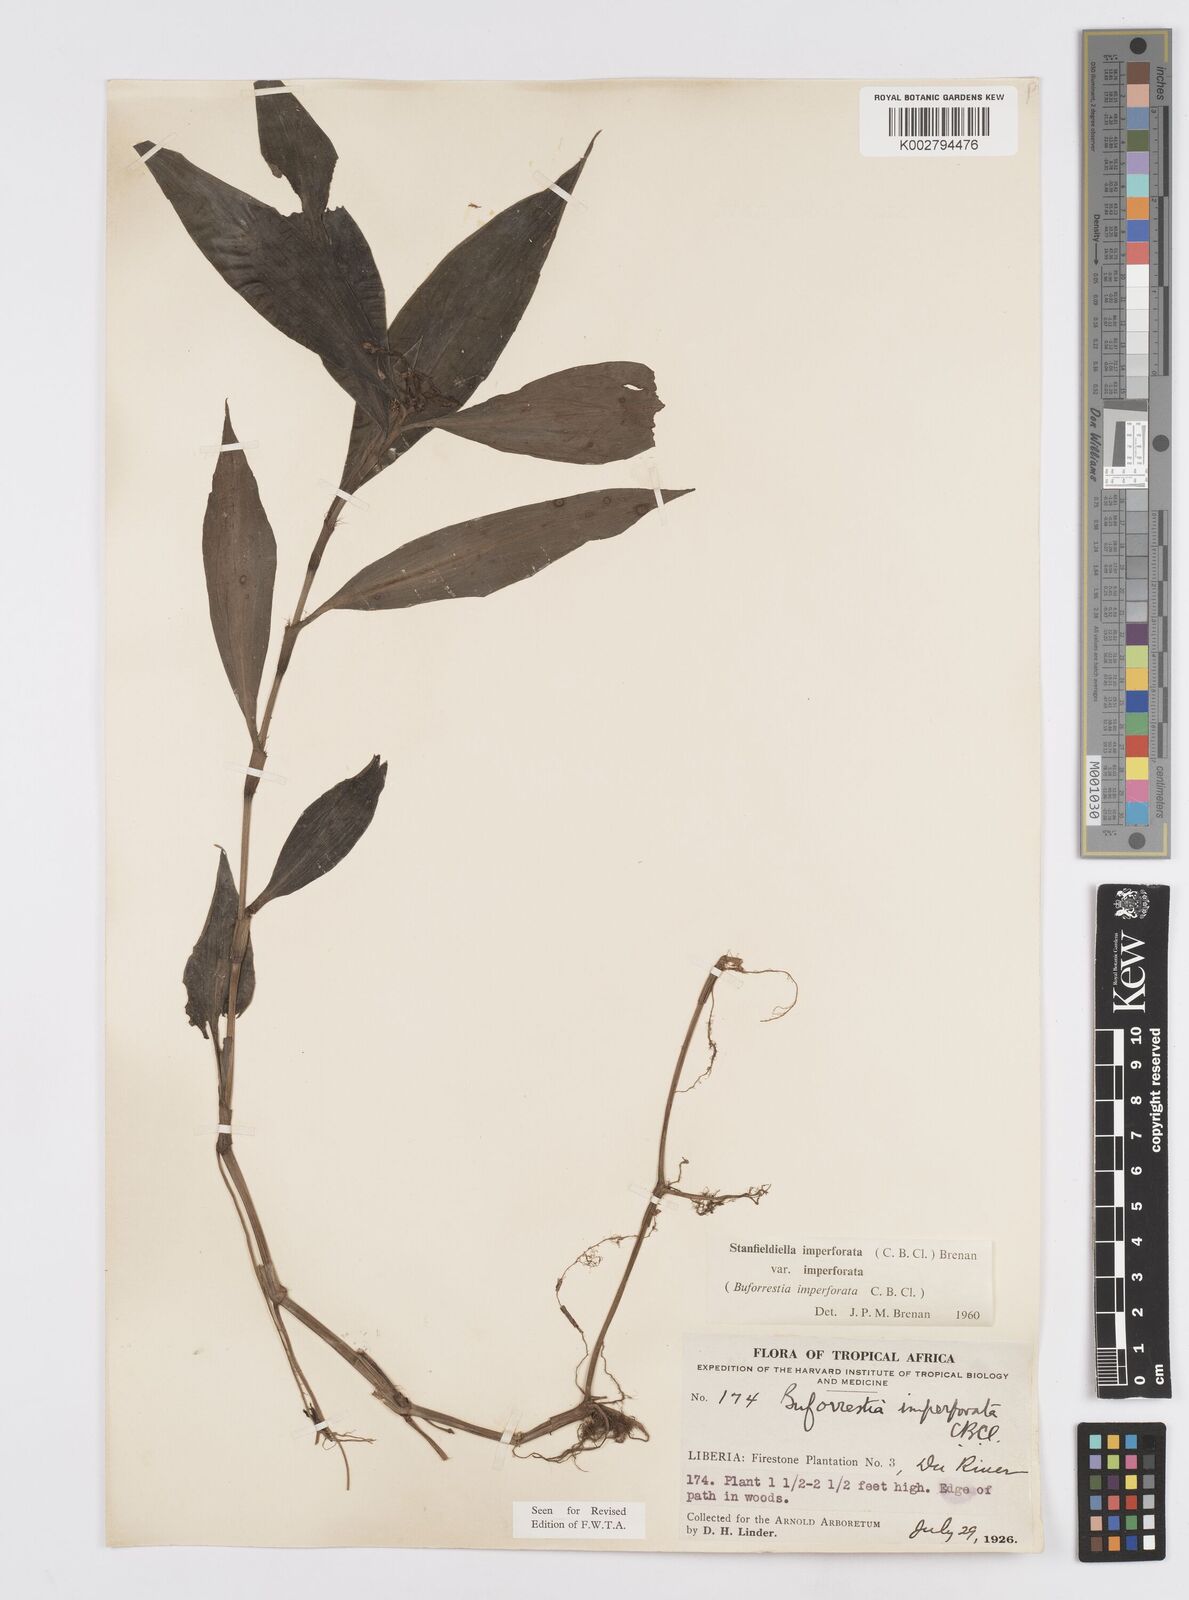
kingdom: Plantae
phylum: Tracheophyta
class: Liliopsida
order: Commelinales
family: Commelinaceae
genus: Stanfieldiella
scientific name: Stanfieldiella imperforata
